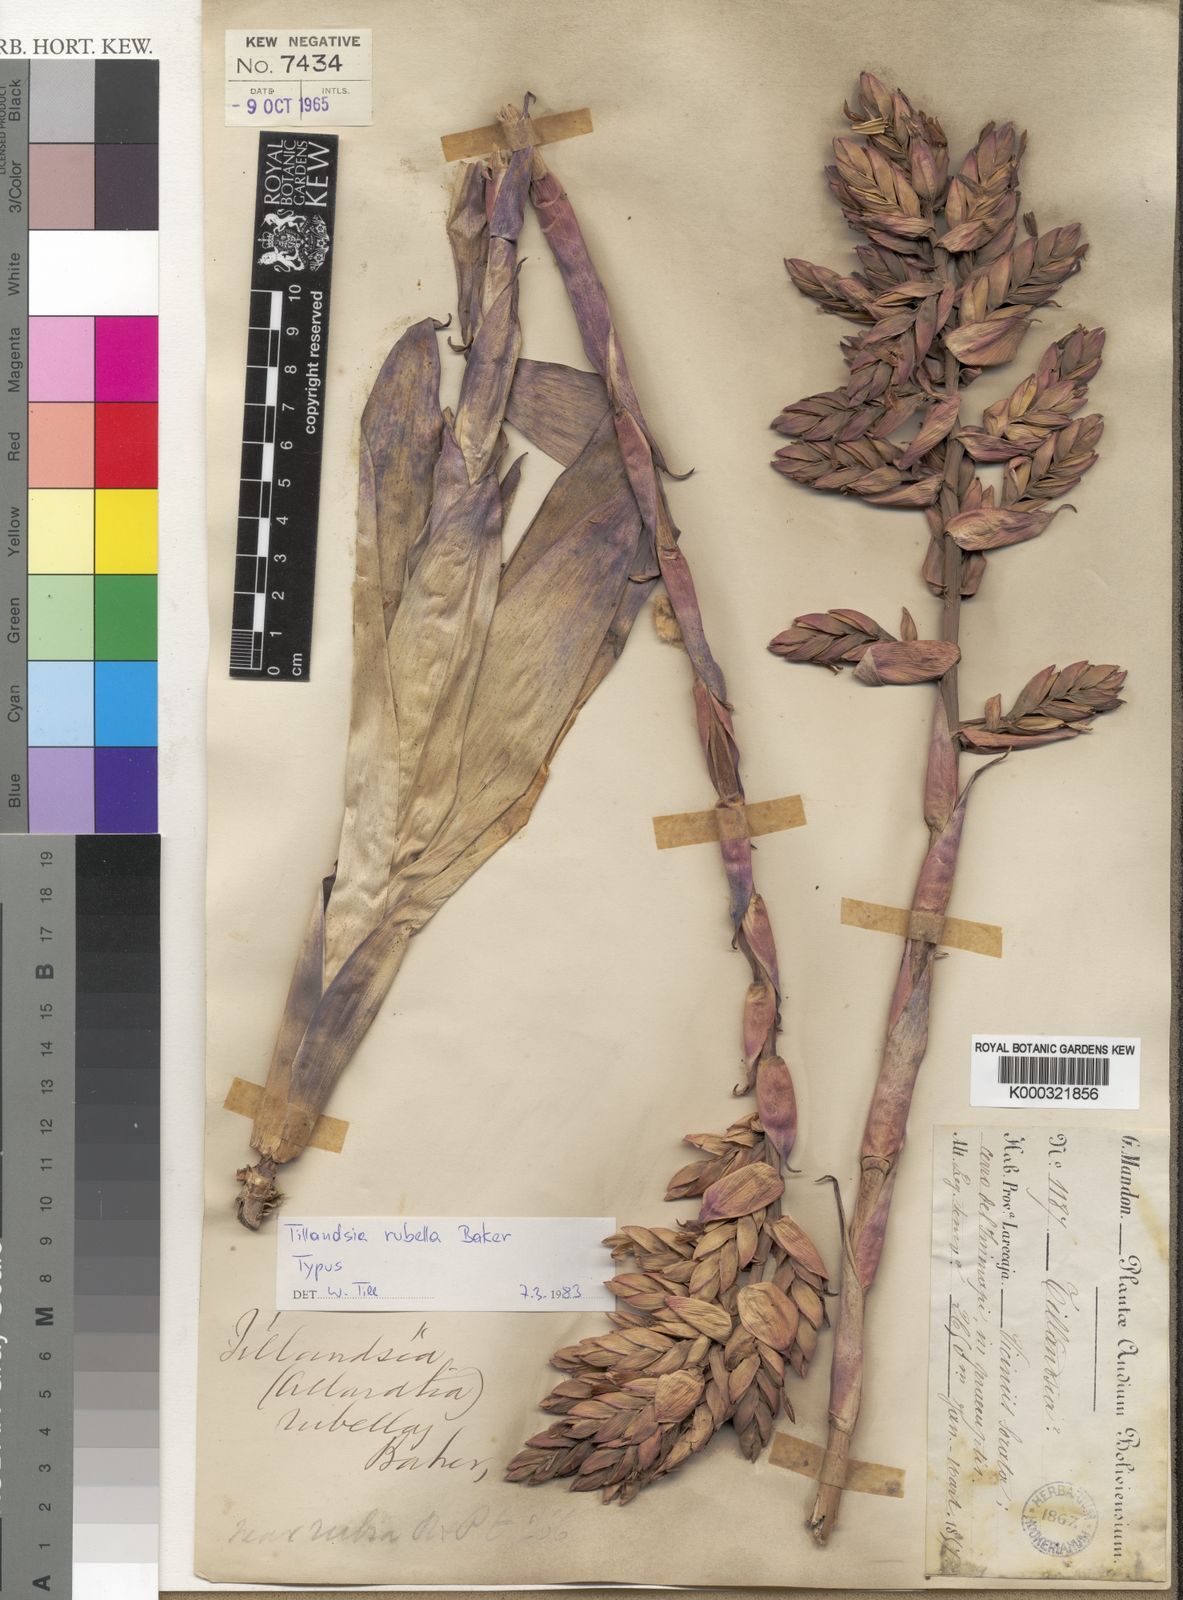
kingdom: Plantae
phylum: Tracheophyta
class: Liliopsida
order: Poales
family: Bromeliaceae
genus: Tillandsia
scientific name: Tillandsia rubella
